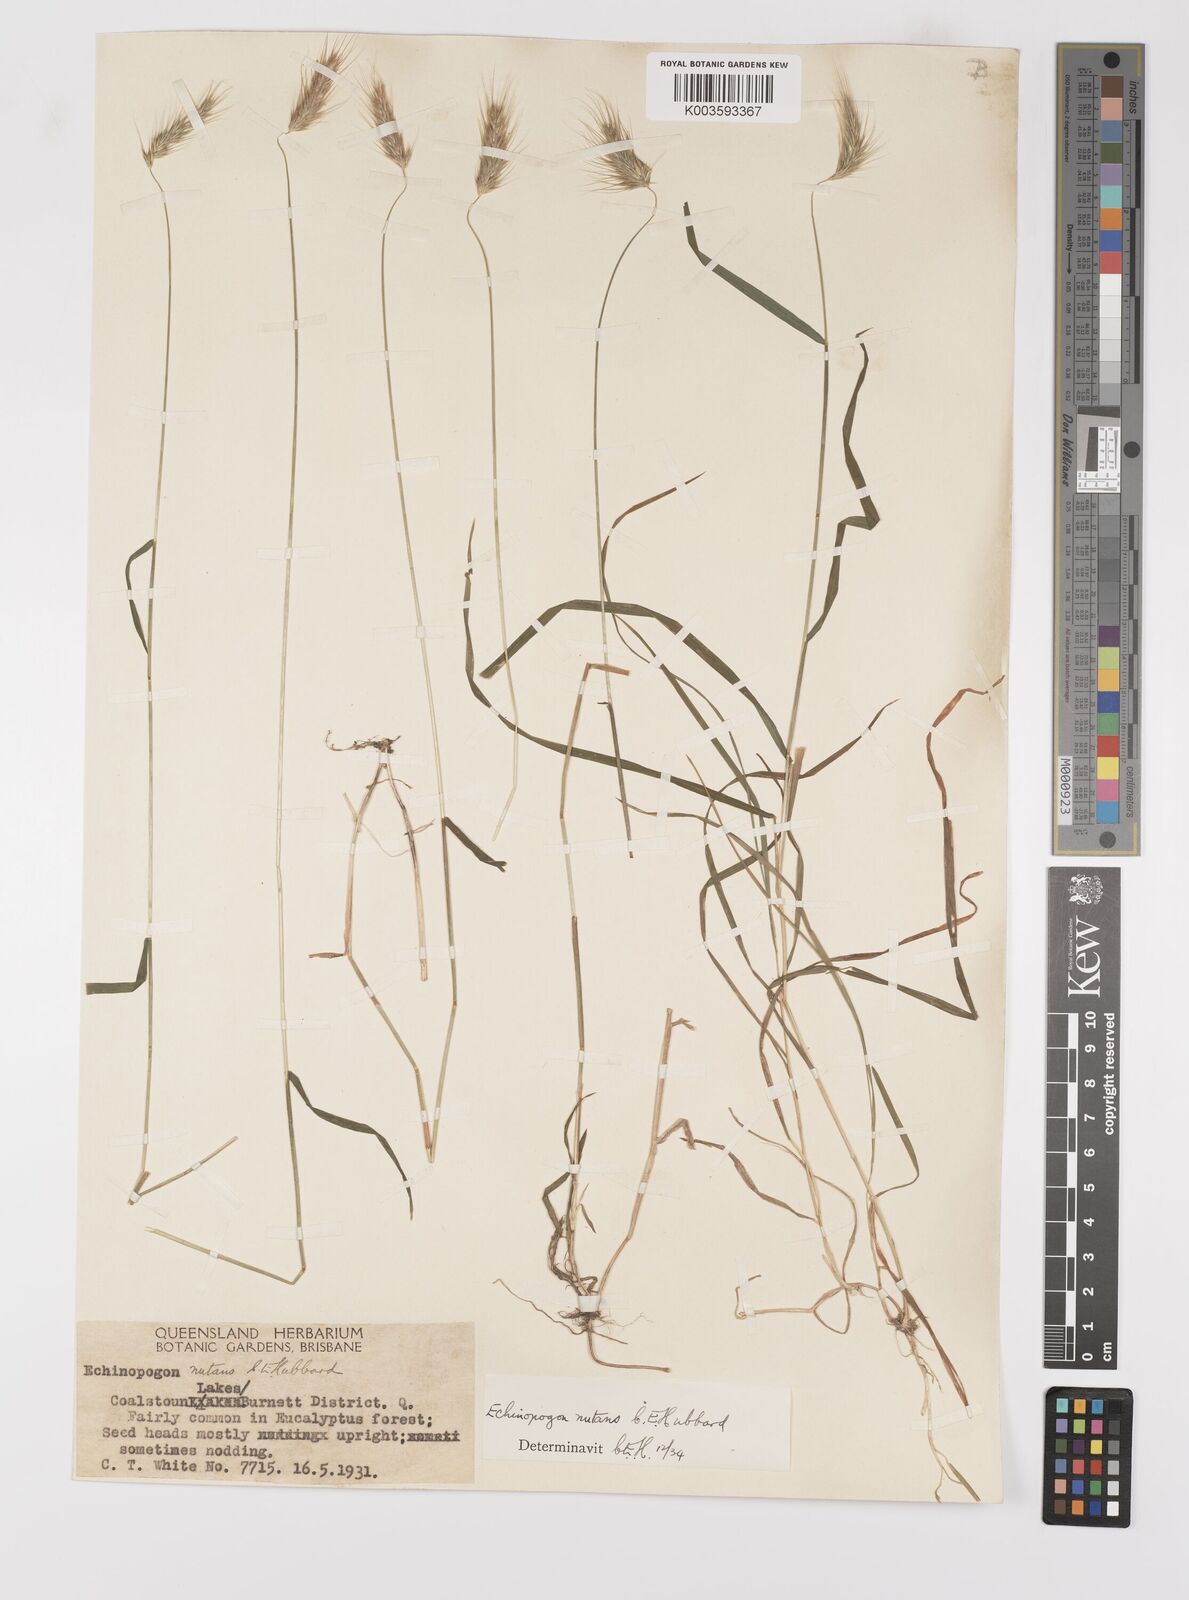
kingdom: Plantae
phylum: Tracheophyta
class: Liliopsida
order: Poales
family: Poaceae
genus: Echinopogon
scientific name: Echinopogon nutans
